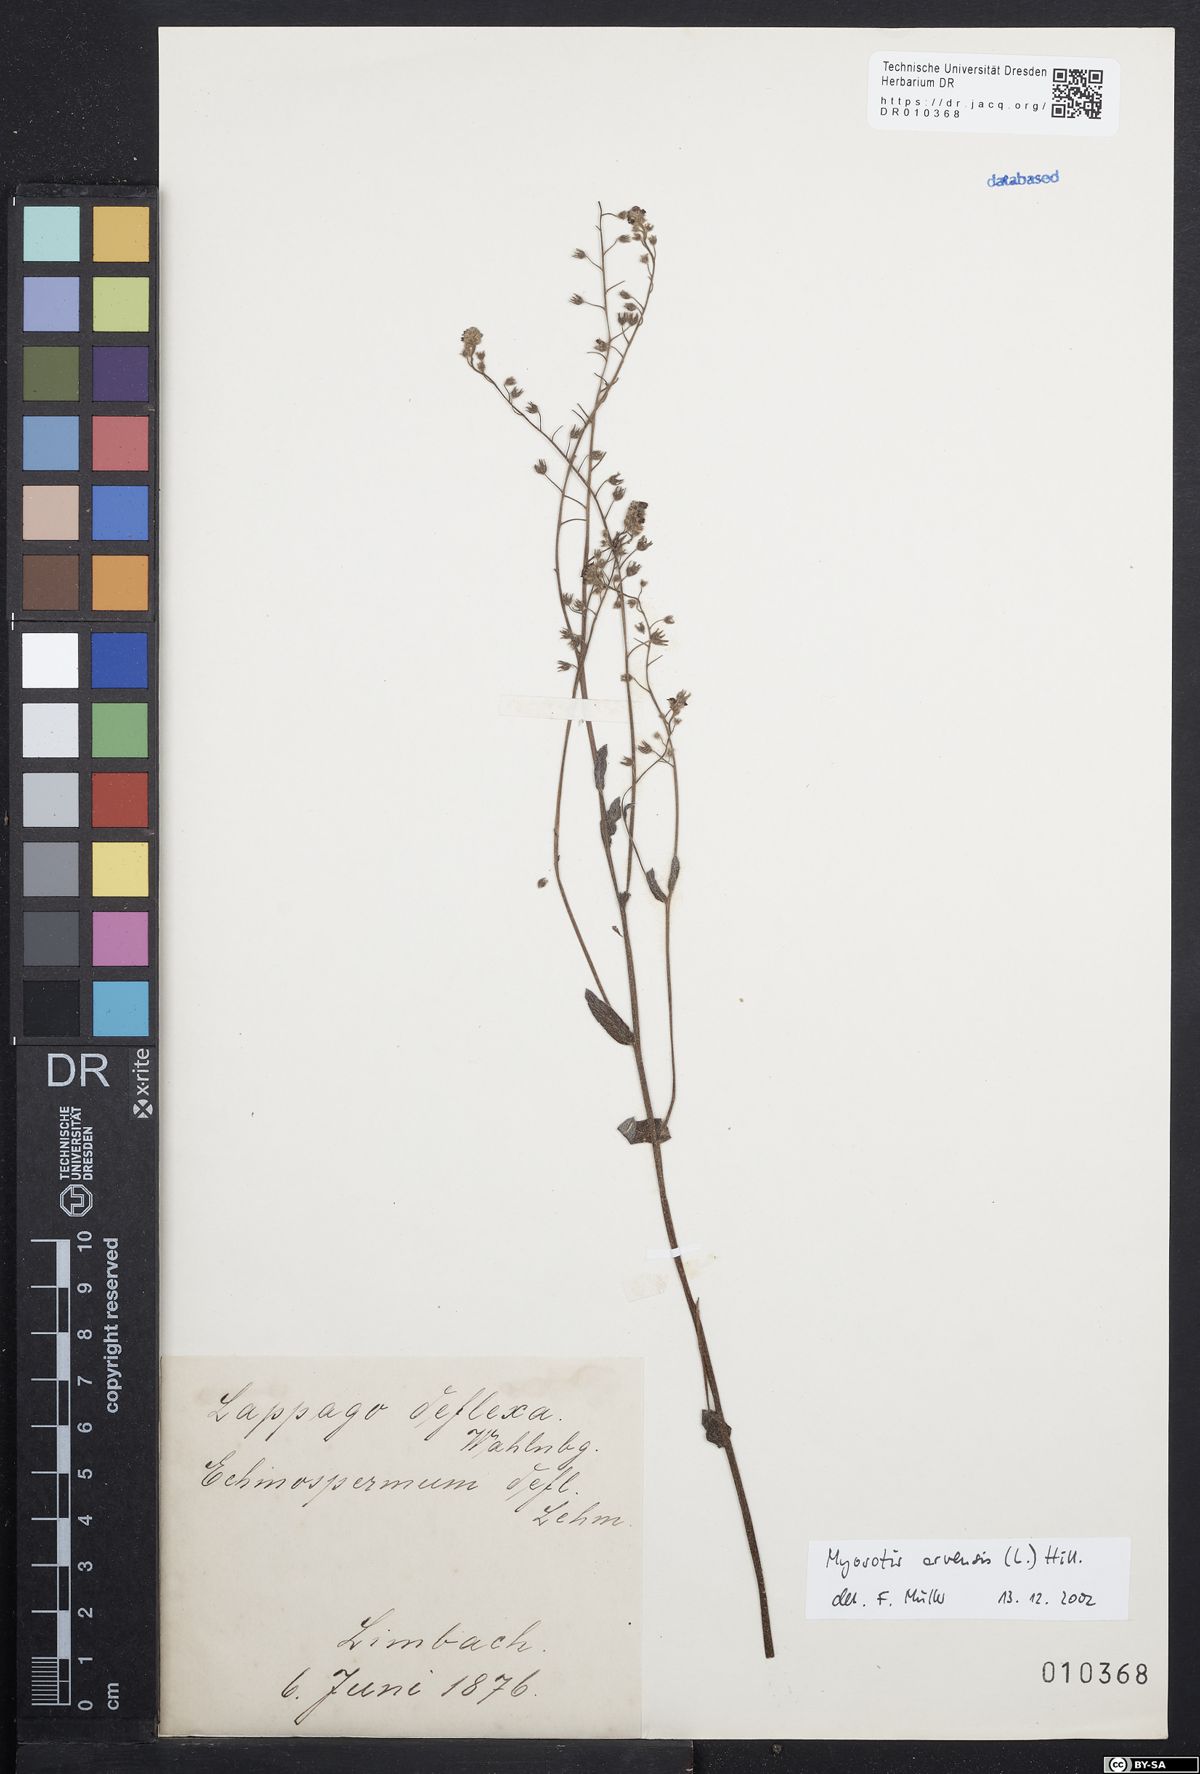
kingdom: Plantae
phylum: Tracheophyta
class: Magnoliopsida
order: Boraginales
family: Boraginaceae
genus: Myosotis
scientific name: Myosotis arvensis
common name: Field forget-me-not
